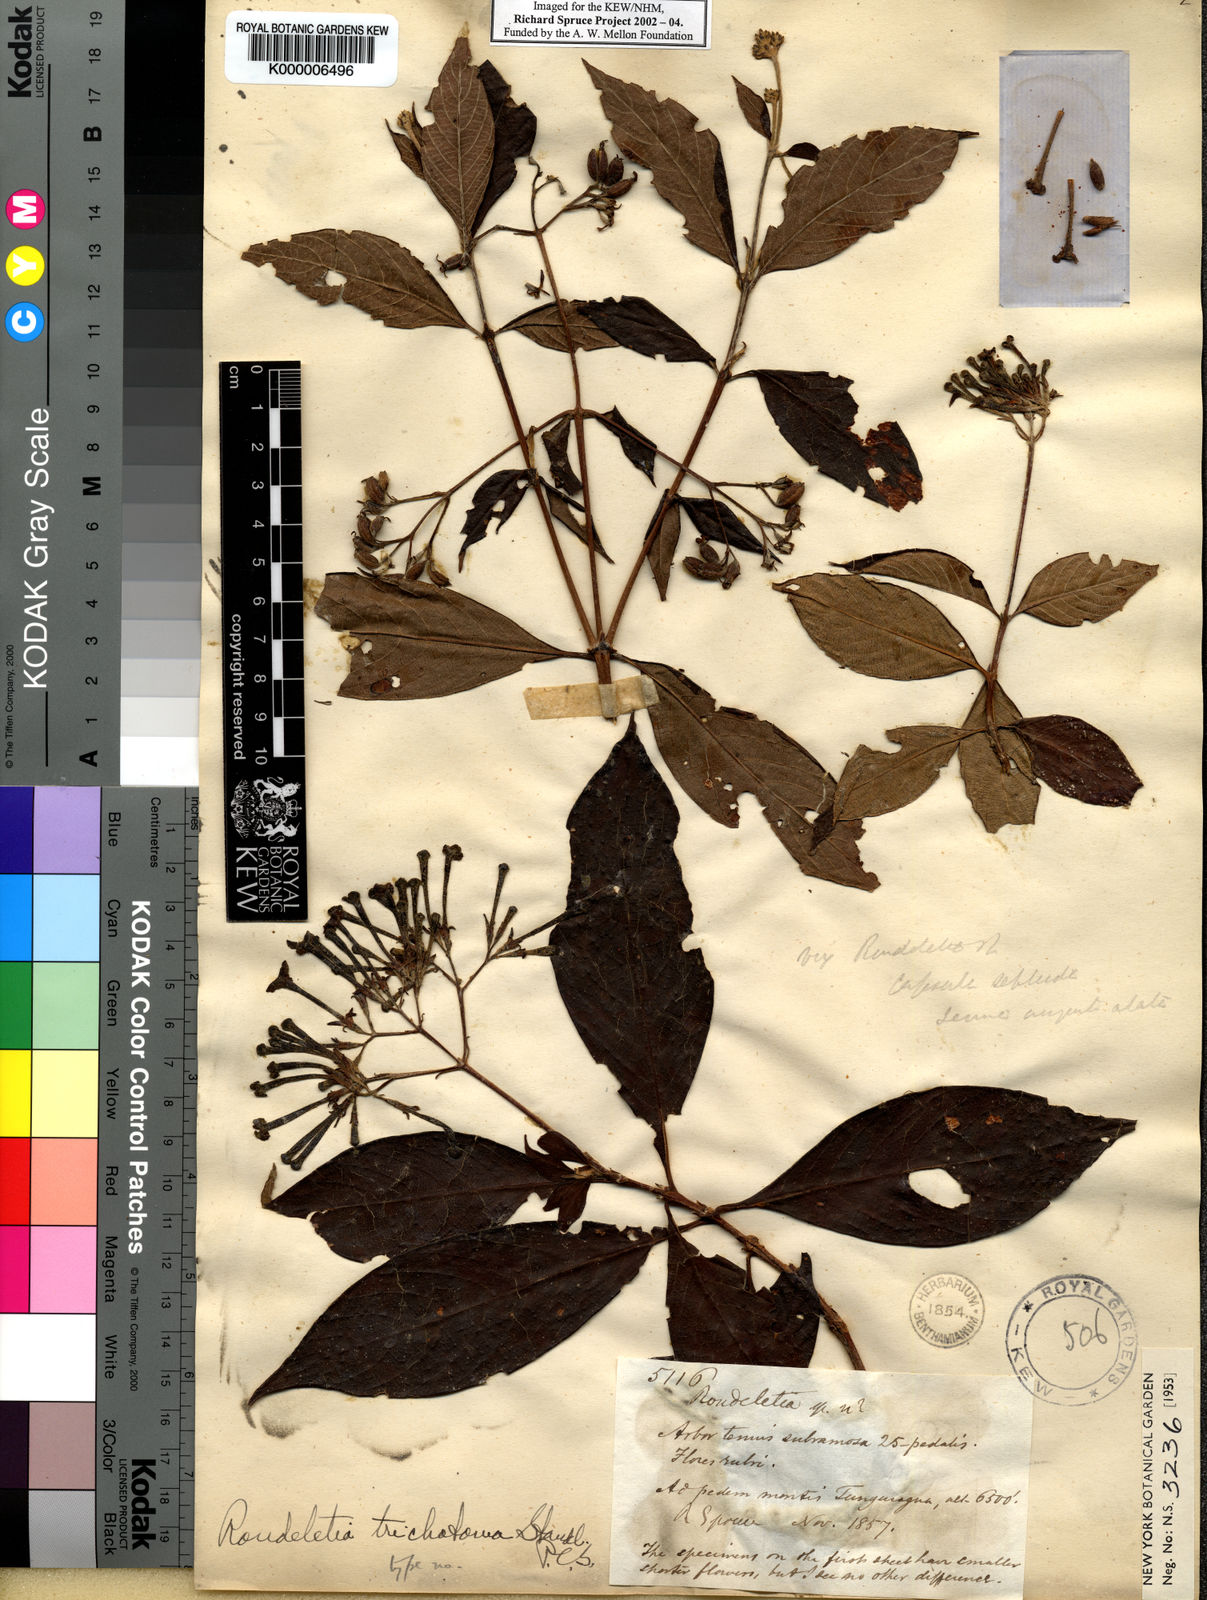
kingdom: Plantae
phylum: Tracheophyta
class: Magnoliopsida
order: Gentianales
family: Rubiaceae
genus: Arachnothryx
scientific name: Arachnothryx reflexa
